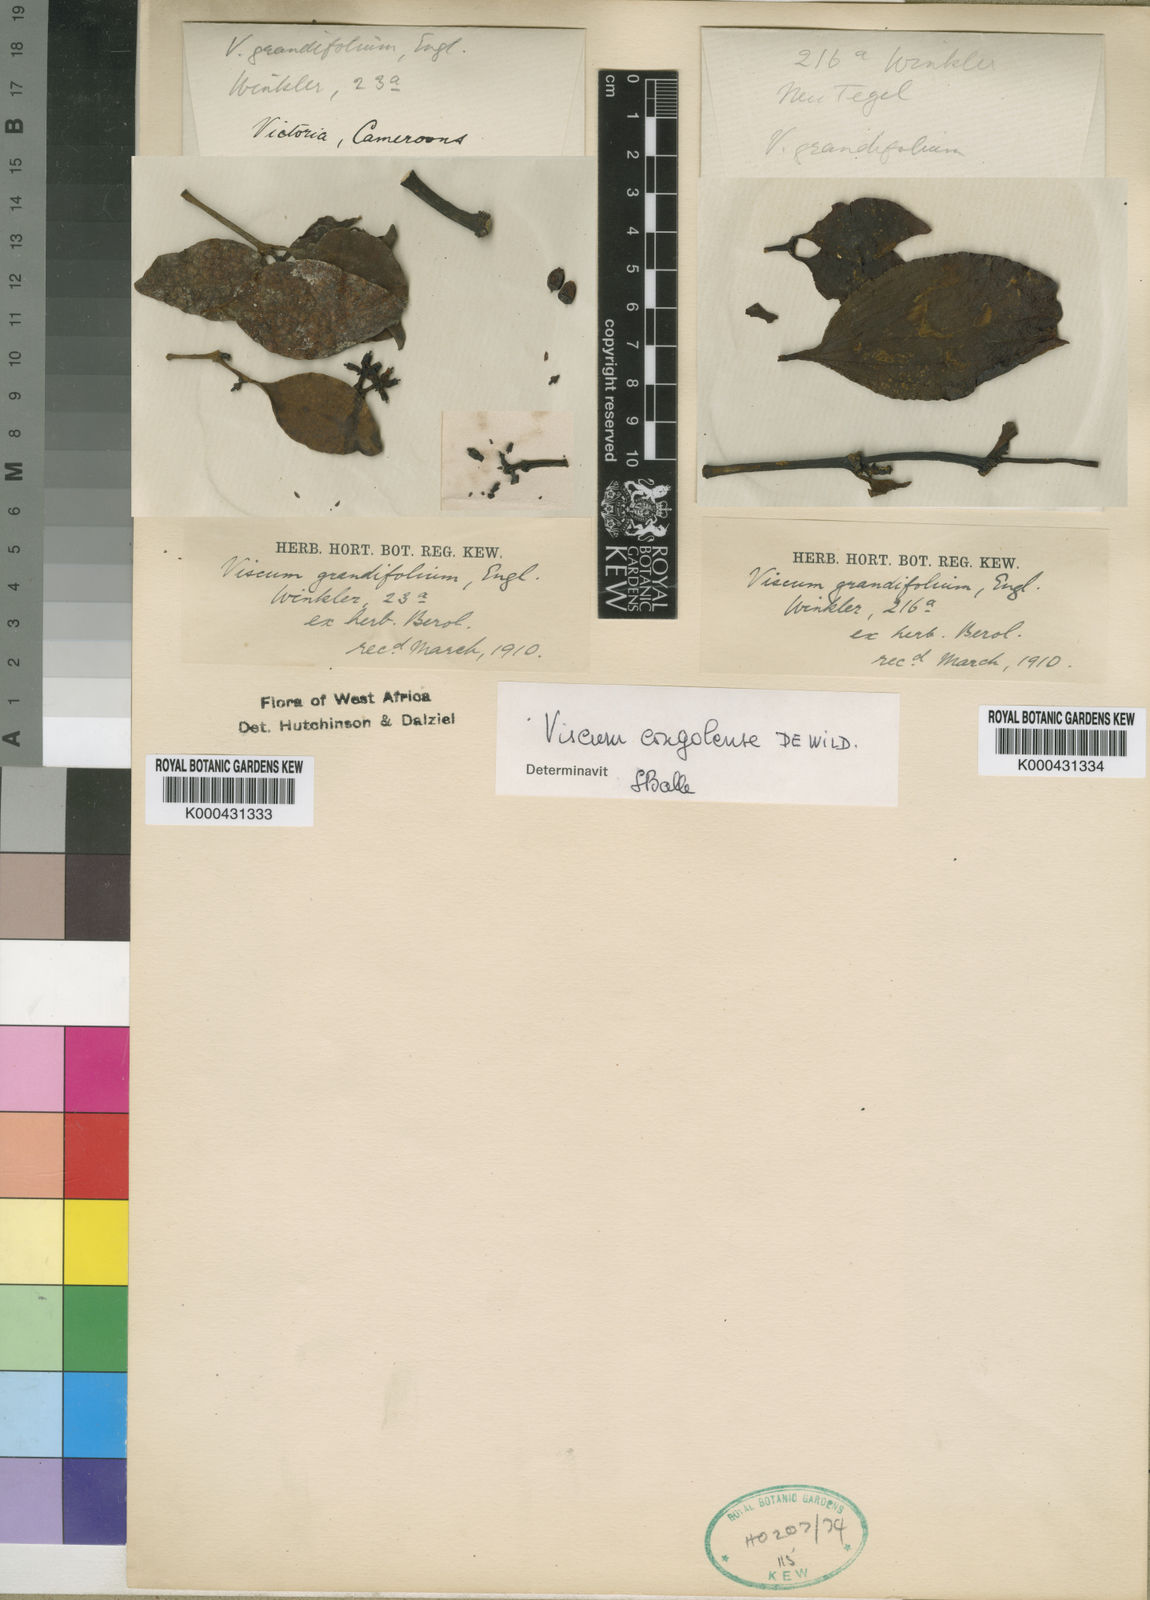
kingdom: Plantae
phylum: Tracheophyta
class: Magnoliopsida
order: Santalales
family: Viscaceae
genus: Viscum
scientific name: Viscum congolense
